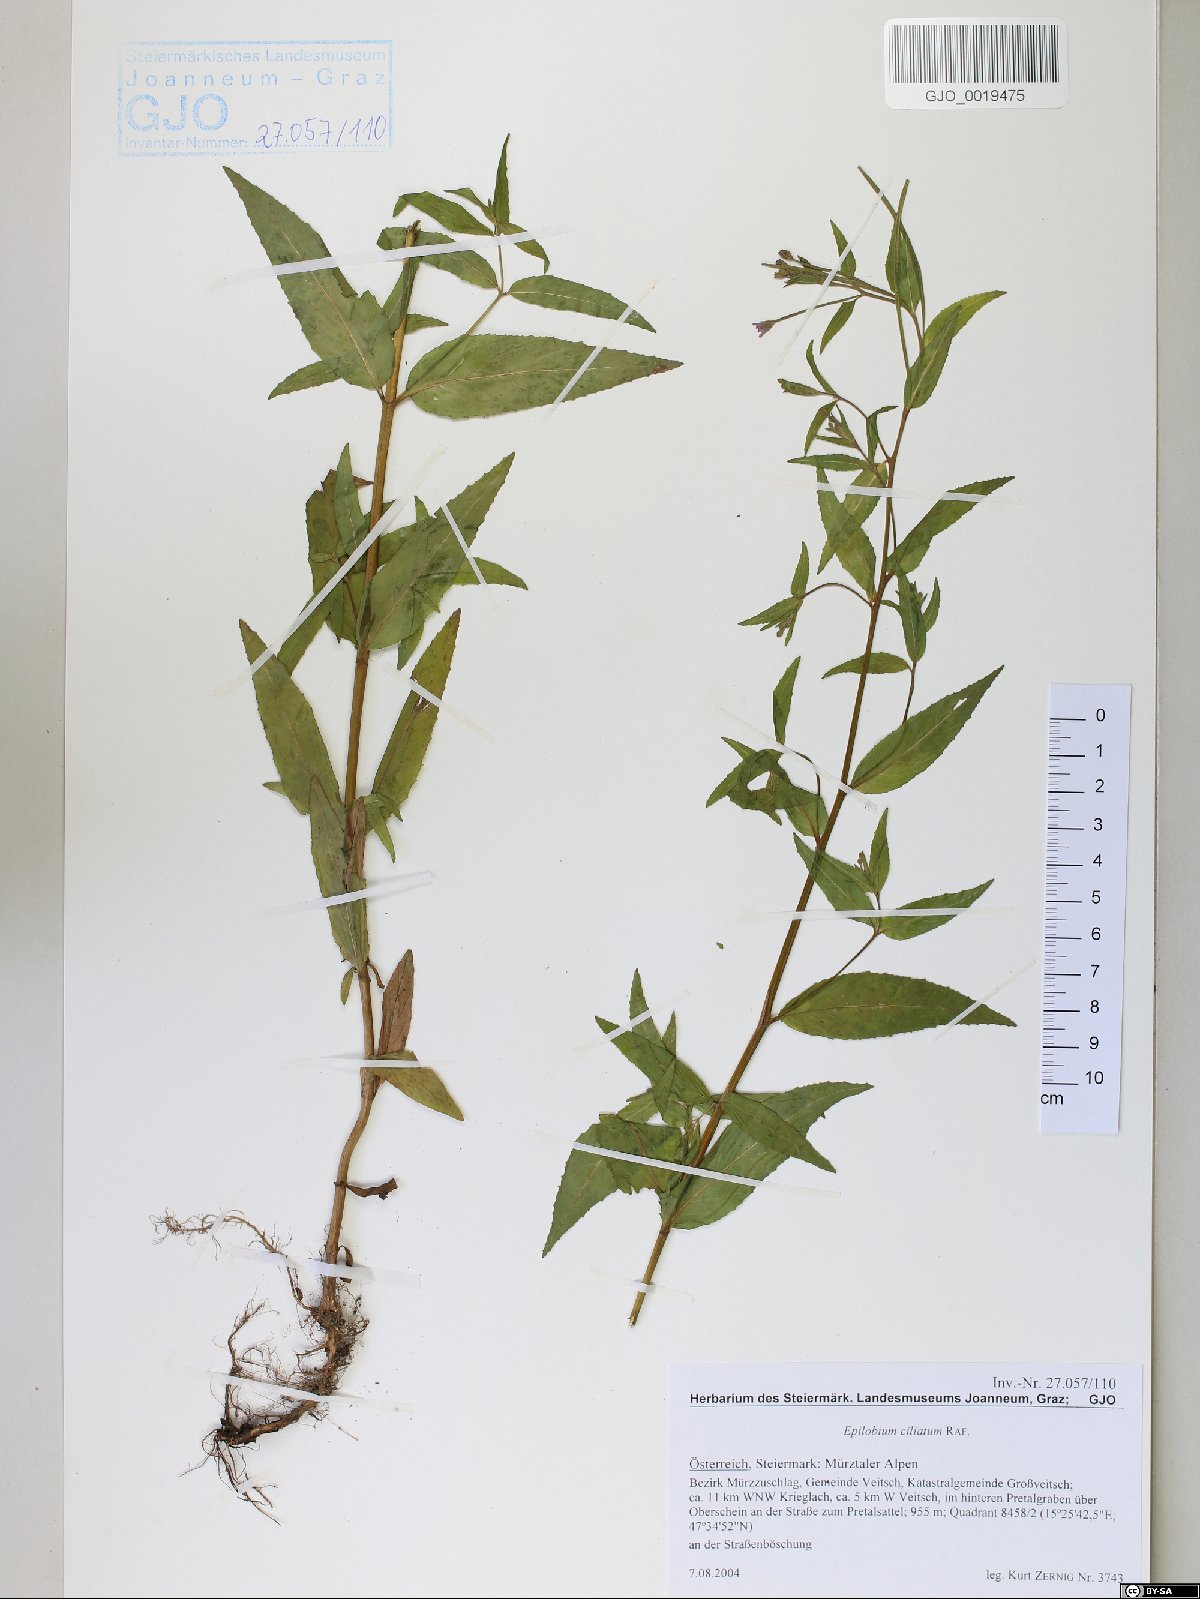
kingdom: Plantae
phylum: Tracheophyta
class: Magnoliopsida
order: Myrtales
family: Onagraceae
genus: Epilobium
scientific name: Epilobium ciliatum
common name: American willowherb
